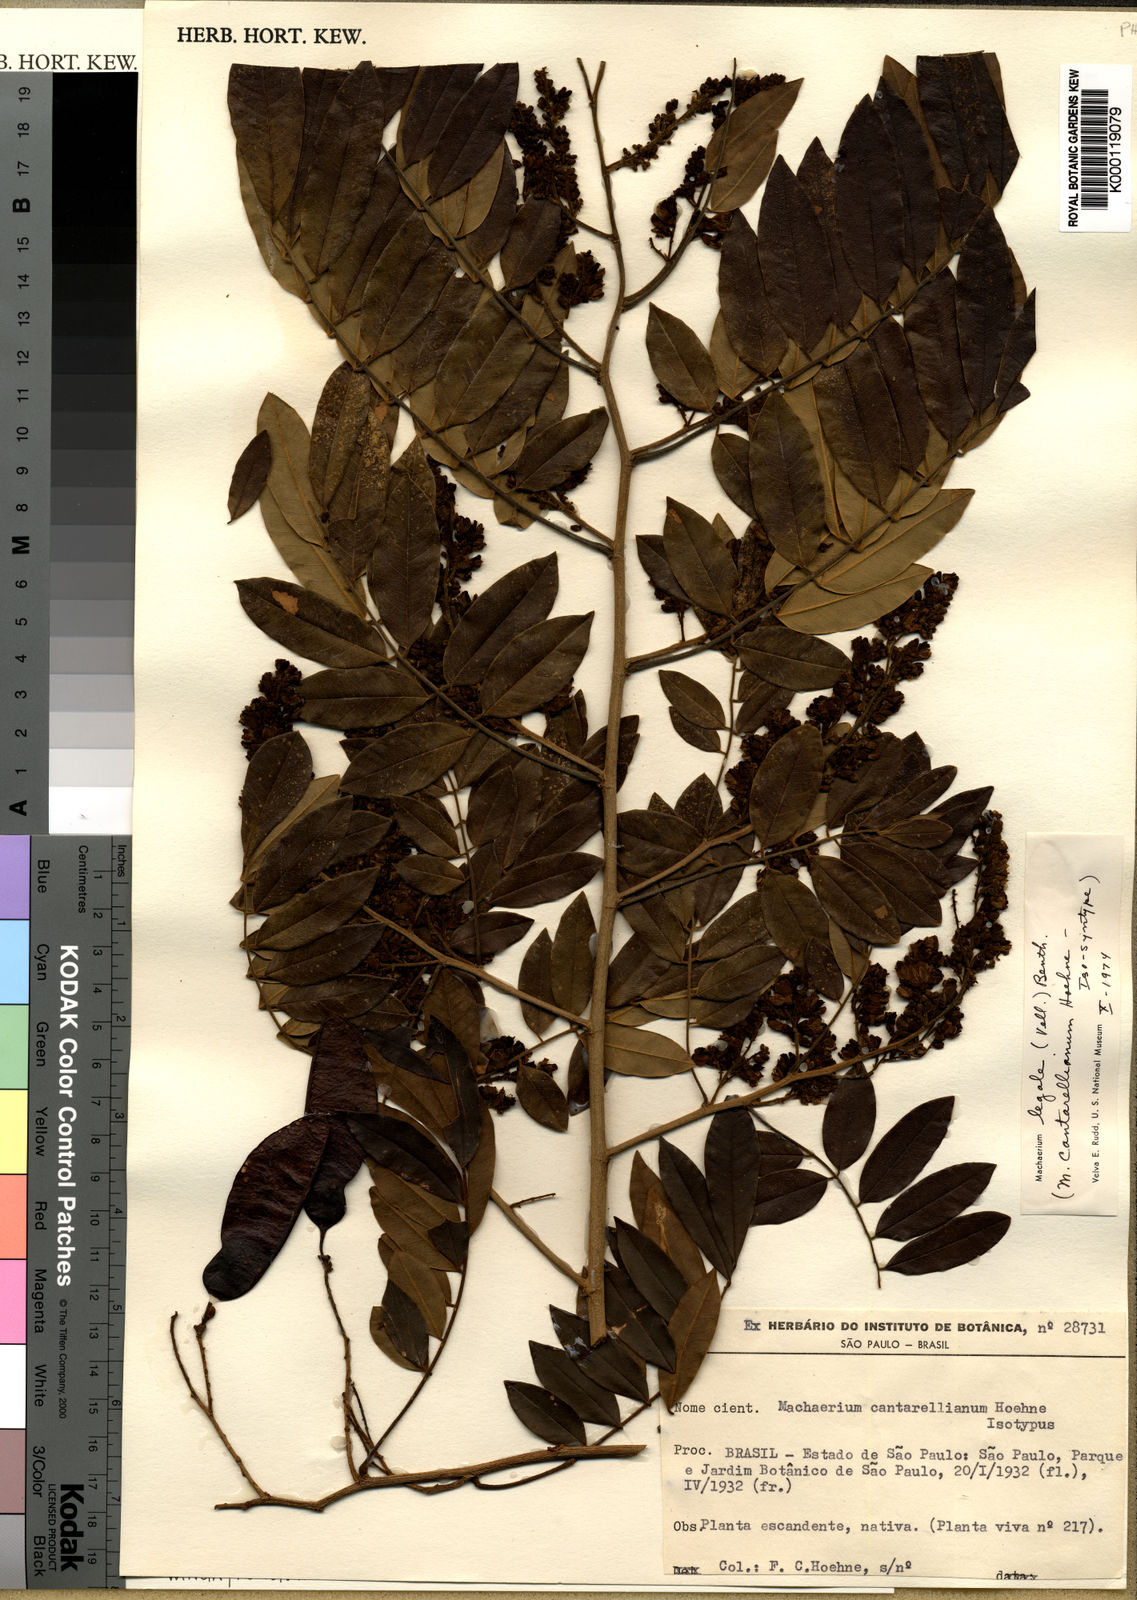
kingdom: Plantae
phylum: Tracheophyta
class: Magnoliopsida
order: Fabales
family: Fabaceae
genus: Machaerium
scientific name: Machaerium
